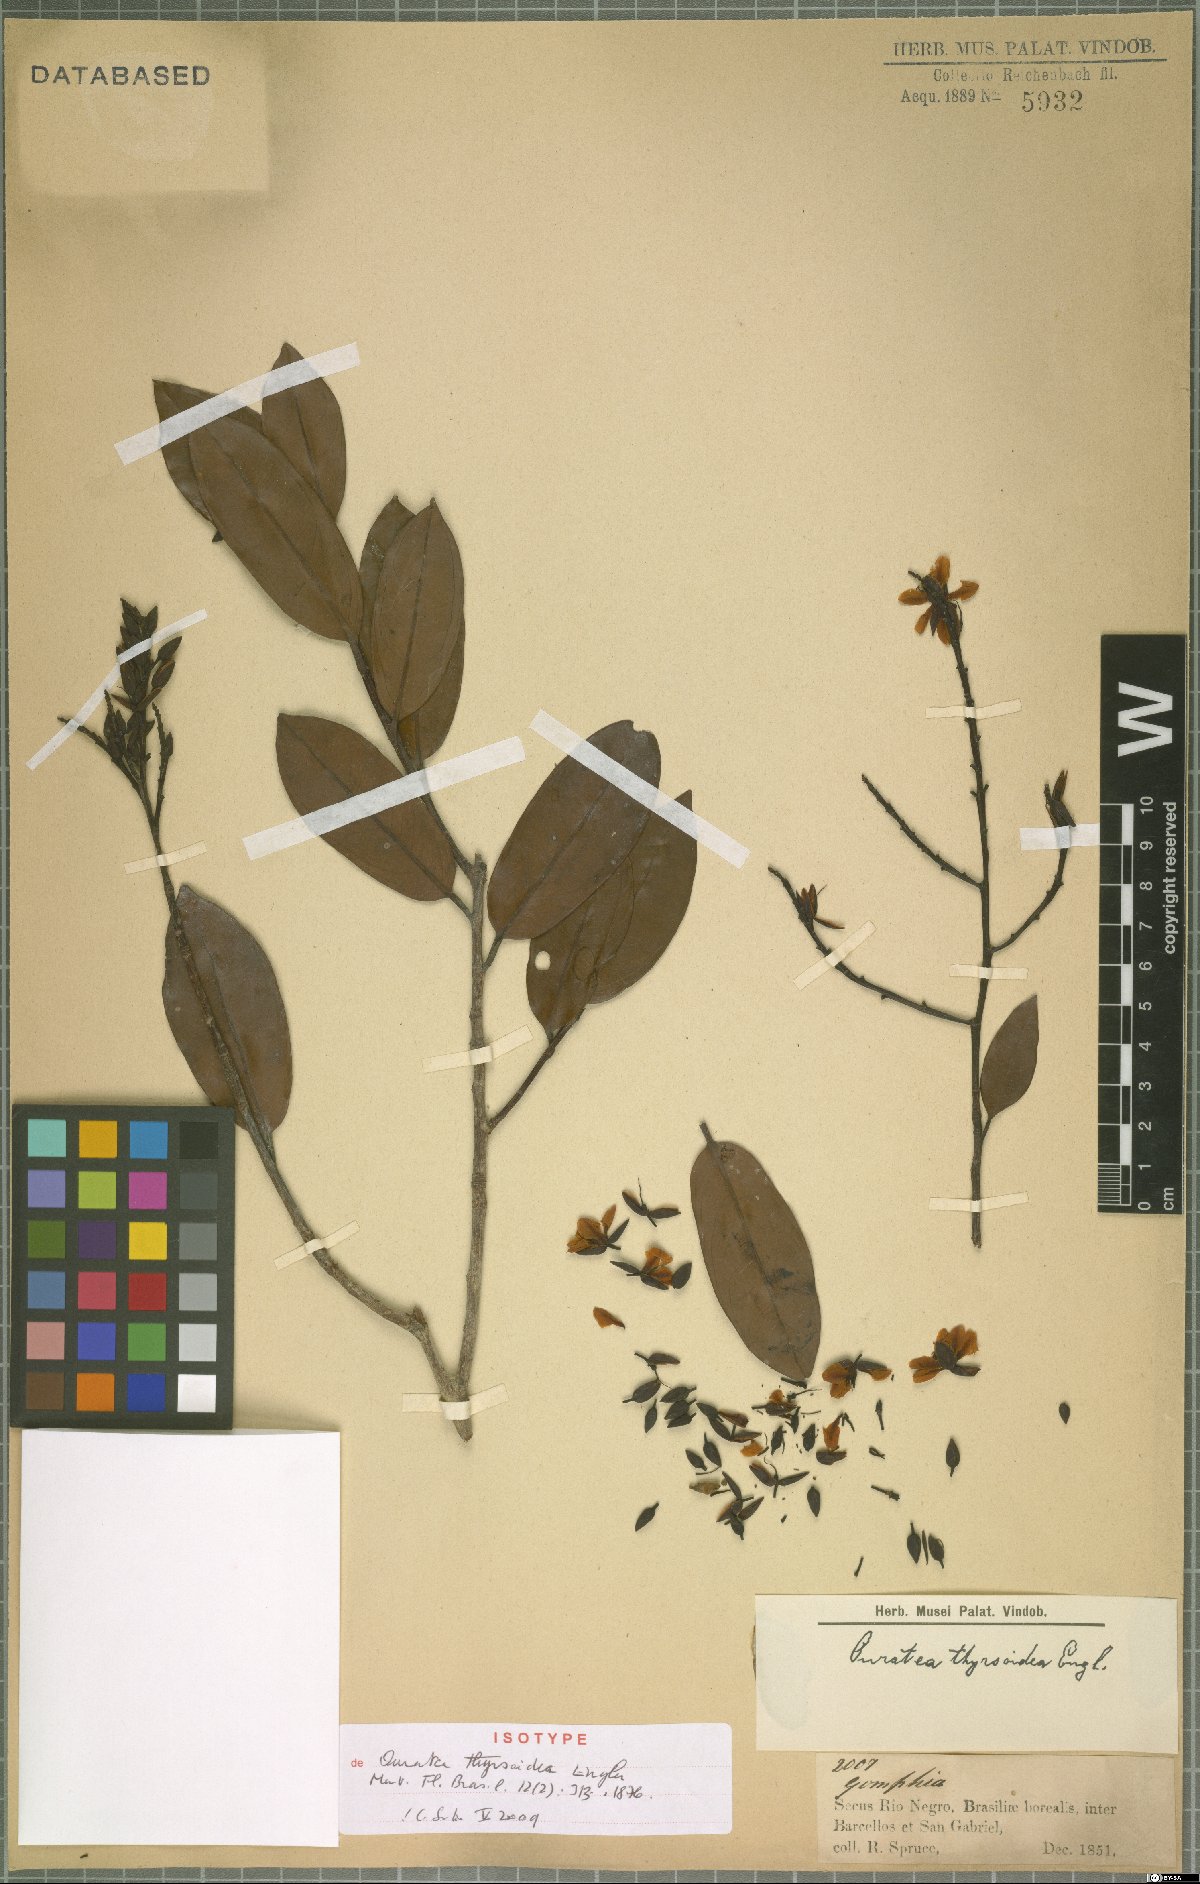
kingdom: Plantae
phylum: Tracheophyta
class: Magnoliopsida
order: Malpighiales
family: Ochnaceae
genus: Ouratea
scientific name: Ouratea thyrsoidea
